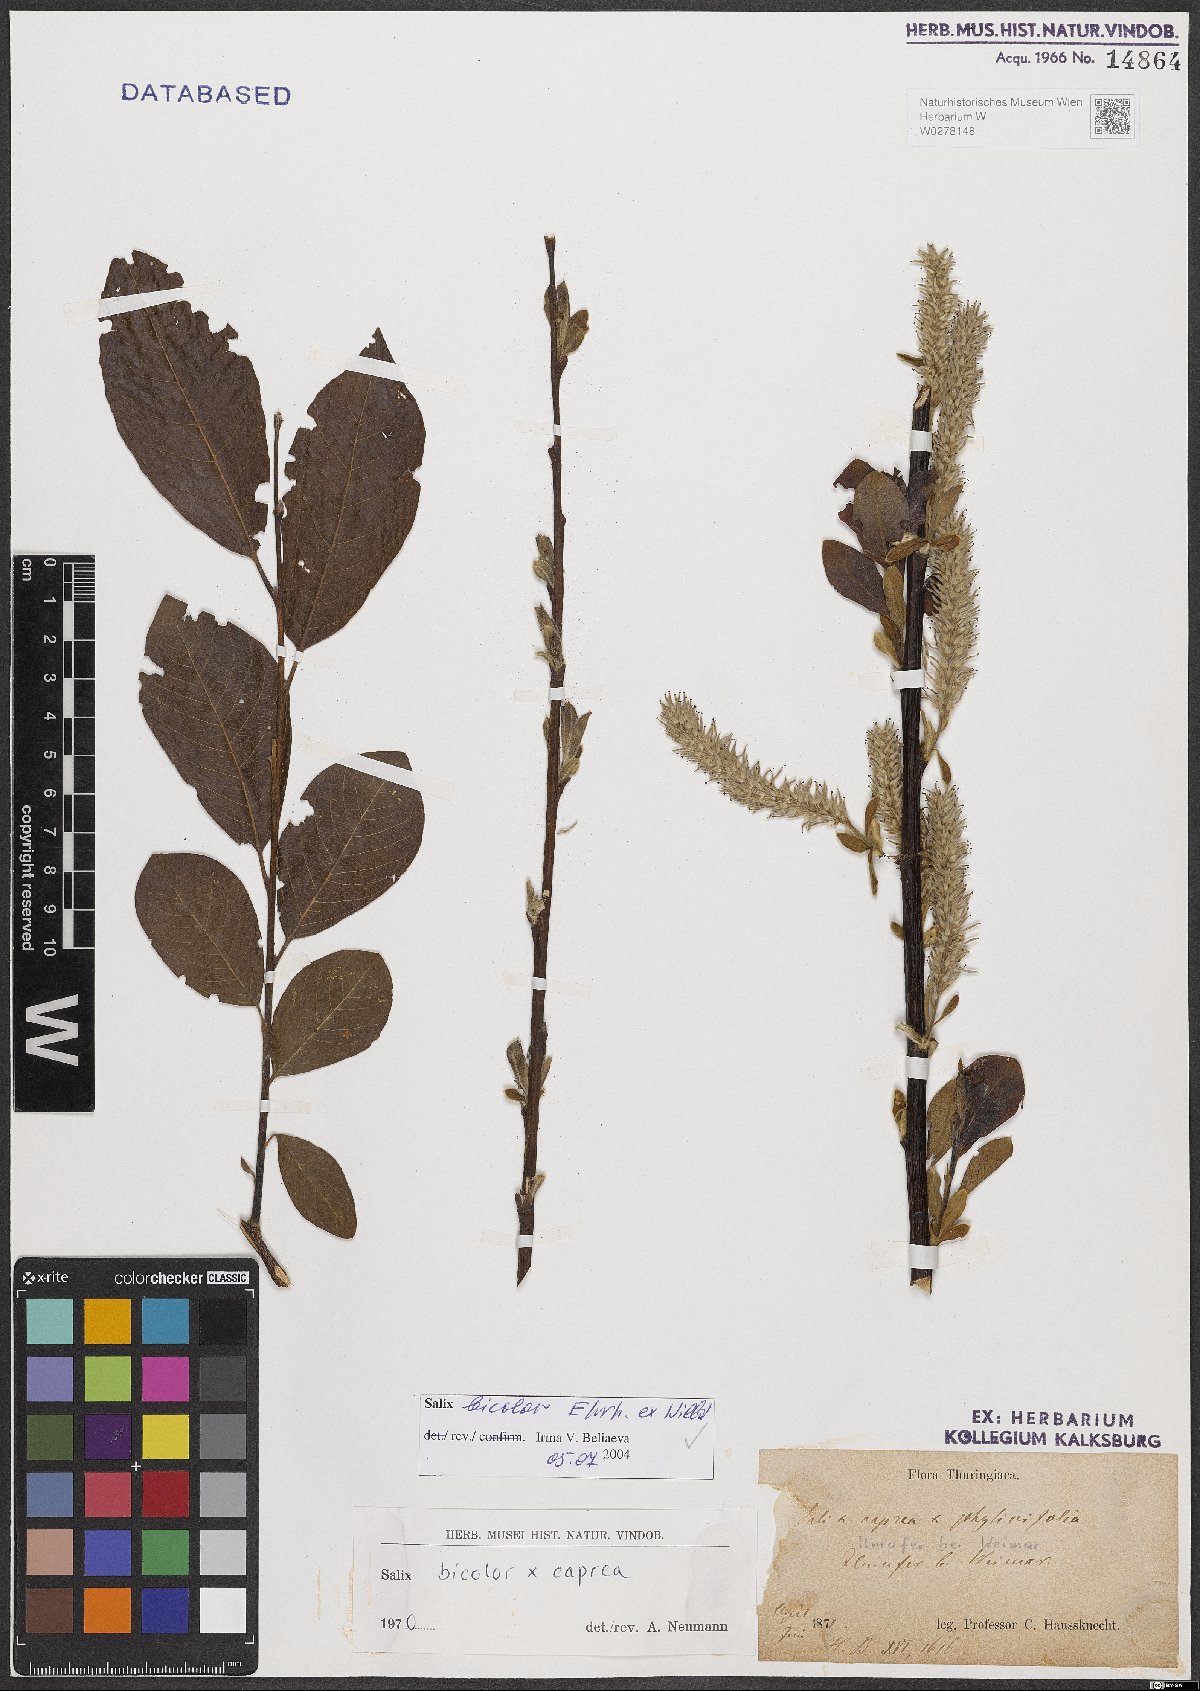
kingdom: Plantae
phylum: Tracheophyta
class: Magnoliopsida
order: Malpighiales
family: Salicaceae
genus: Salix
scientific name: Salix bicolor
